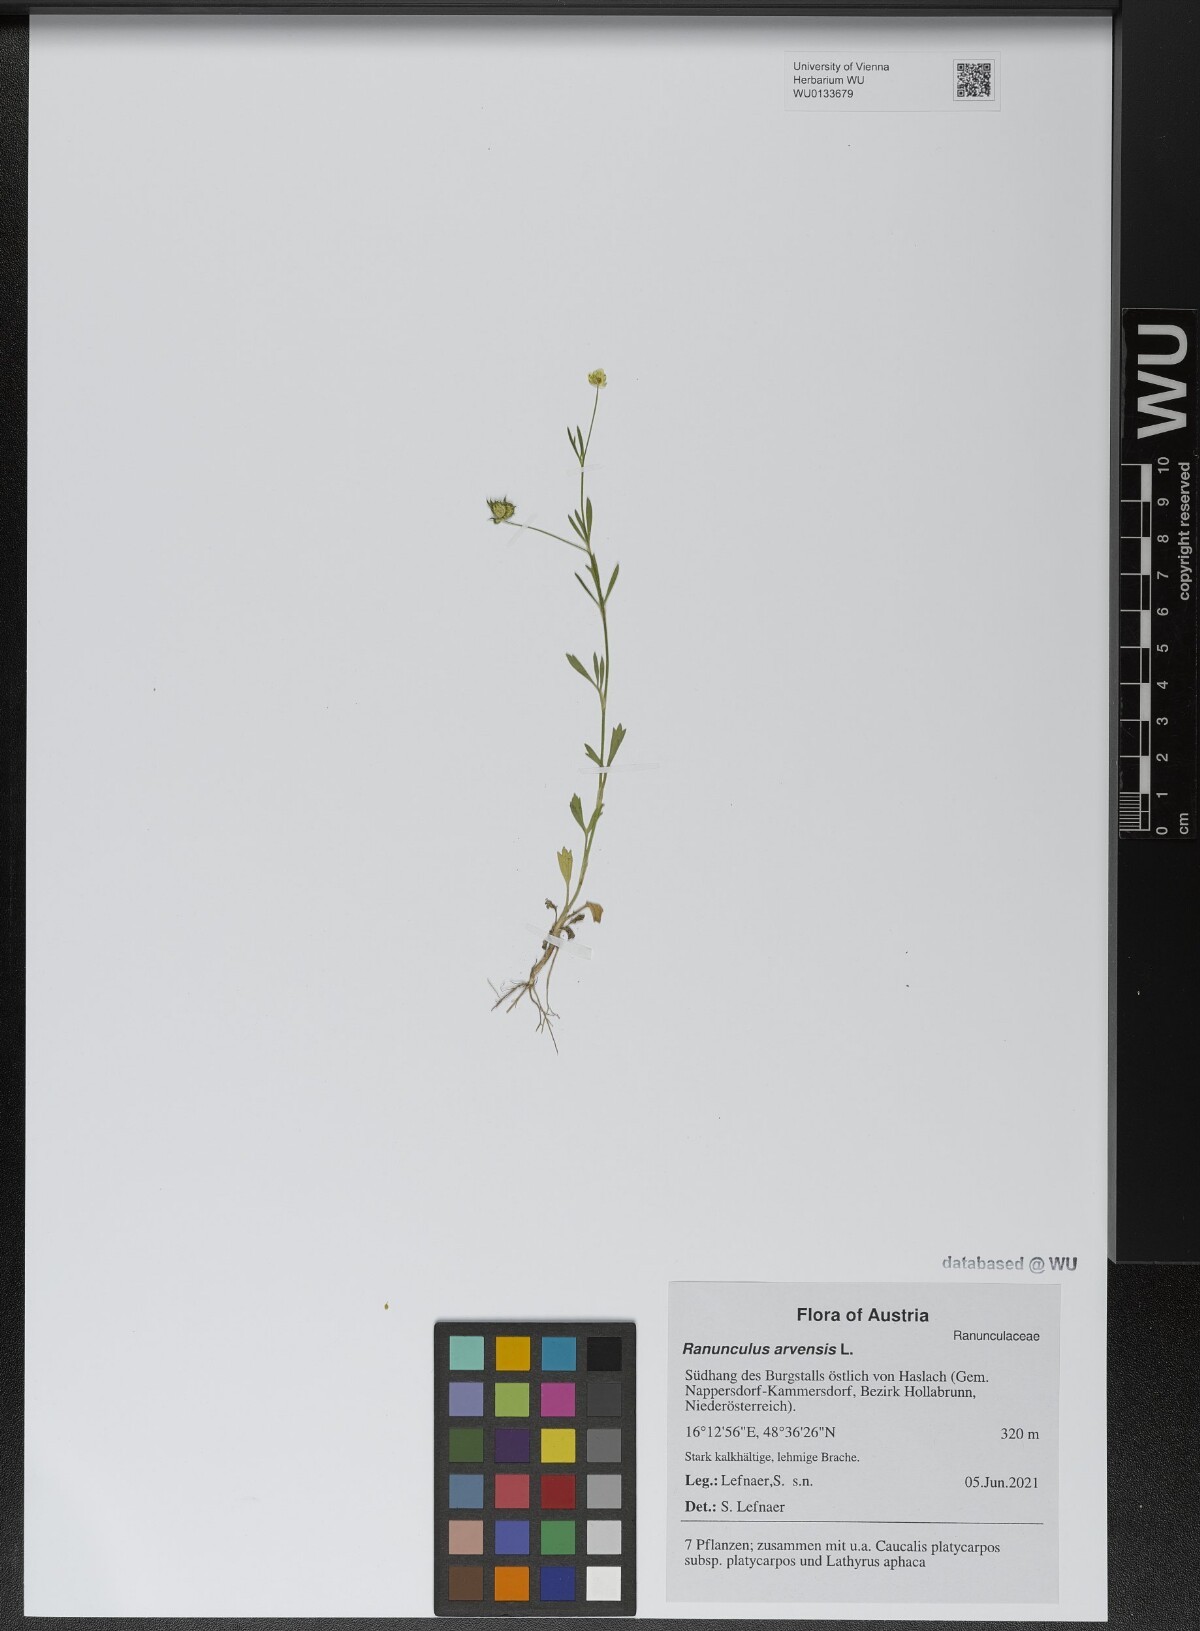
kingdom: Plantae
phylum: Tracheophyta
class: Magnoliopsida
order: Ranunculales
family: Ranunculaceae
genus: Ranunculus
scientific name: Ranunculus arvensis
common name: Corn buttercup
